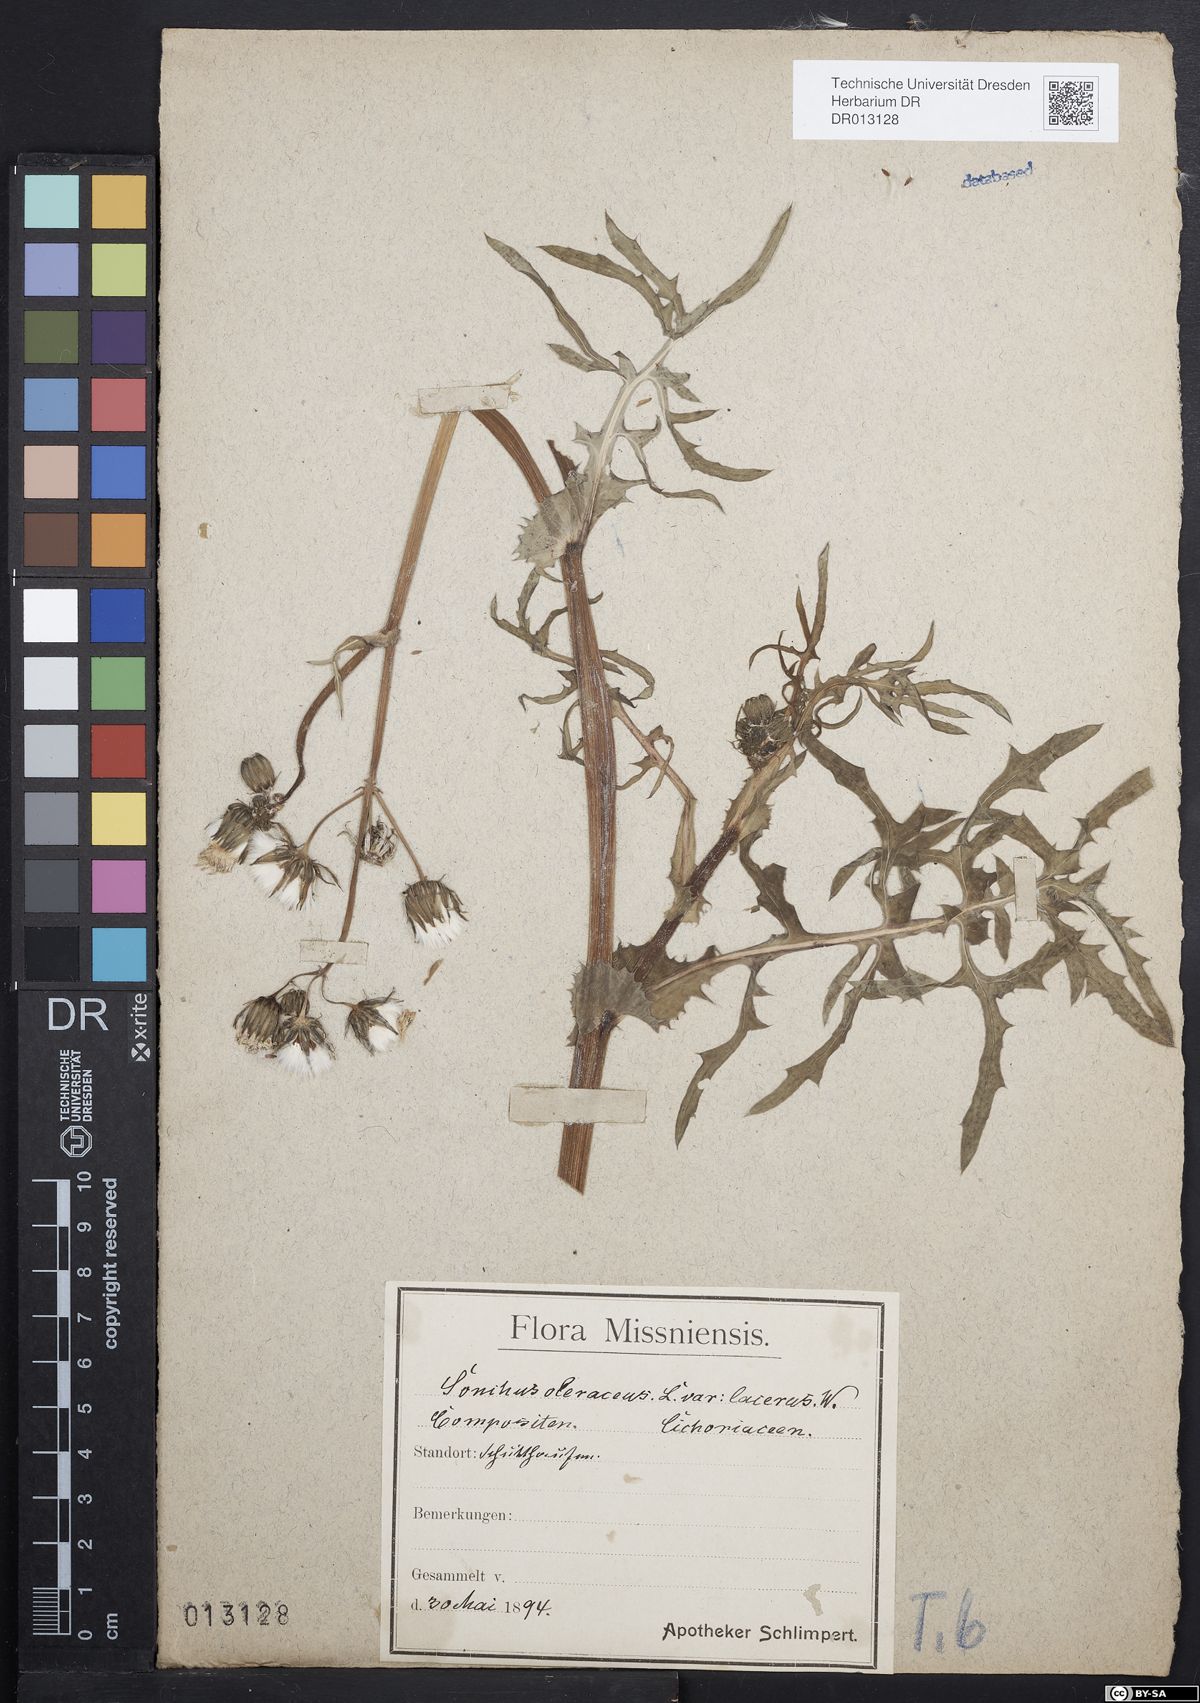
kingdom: Plantae
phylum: Tracheophyta
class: Magnoliopsida
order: Asterales
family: Asteraceae
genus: Sonchus
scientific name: Sonchus oleraceus
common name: Common sowthistle
